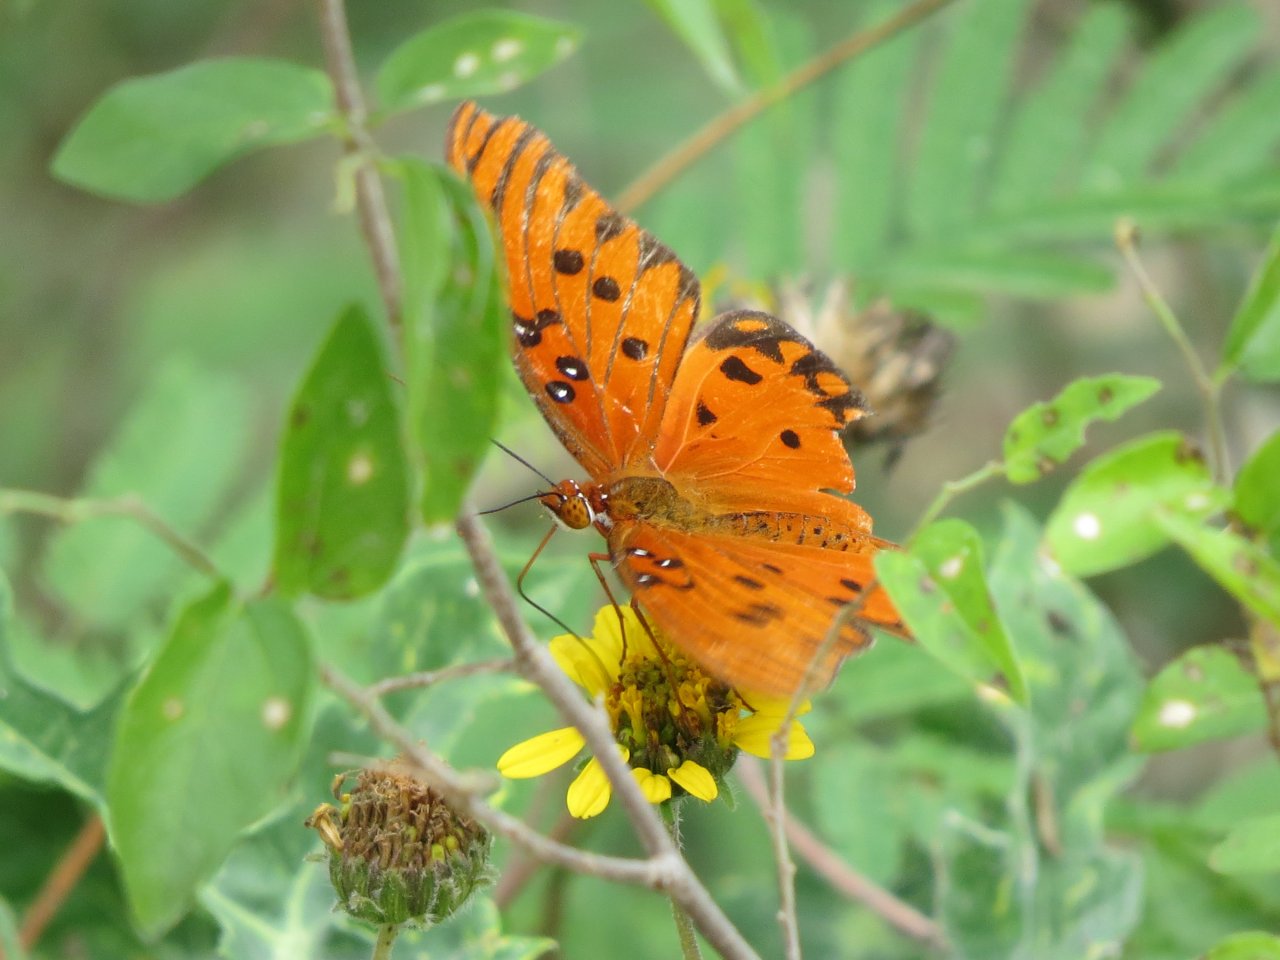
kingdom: Animalia
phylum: Arthropoda
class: Insecta
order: Lepidoptera
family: Nymphalidae
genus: Dione
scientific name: Dione vanillae
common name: Gulf Fritillary
